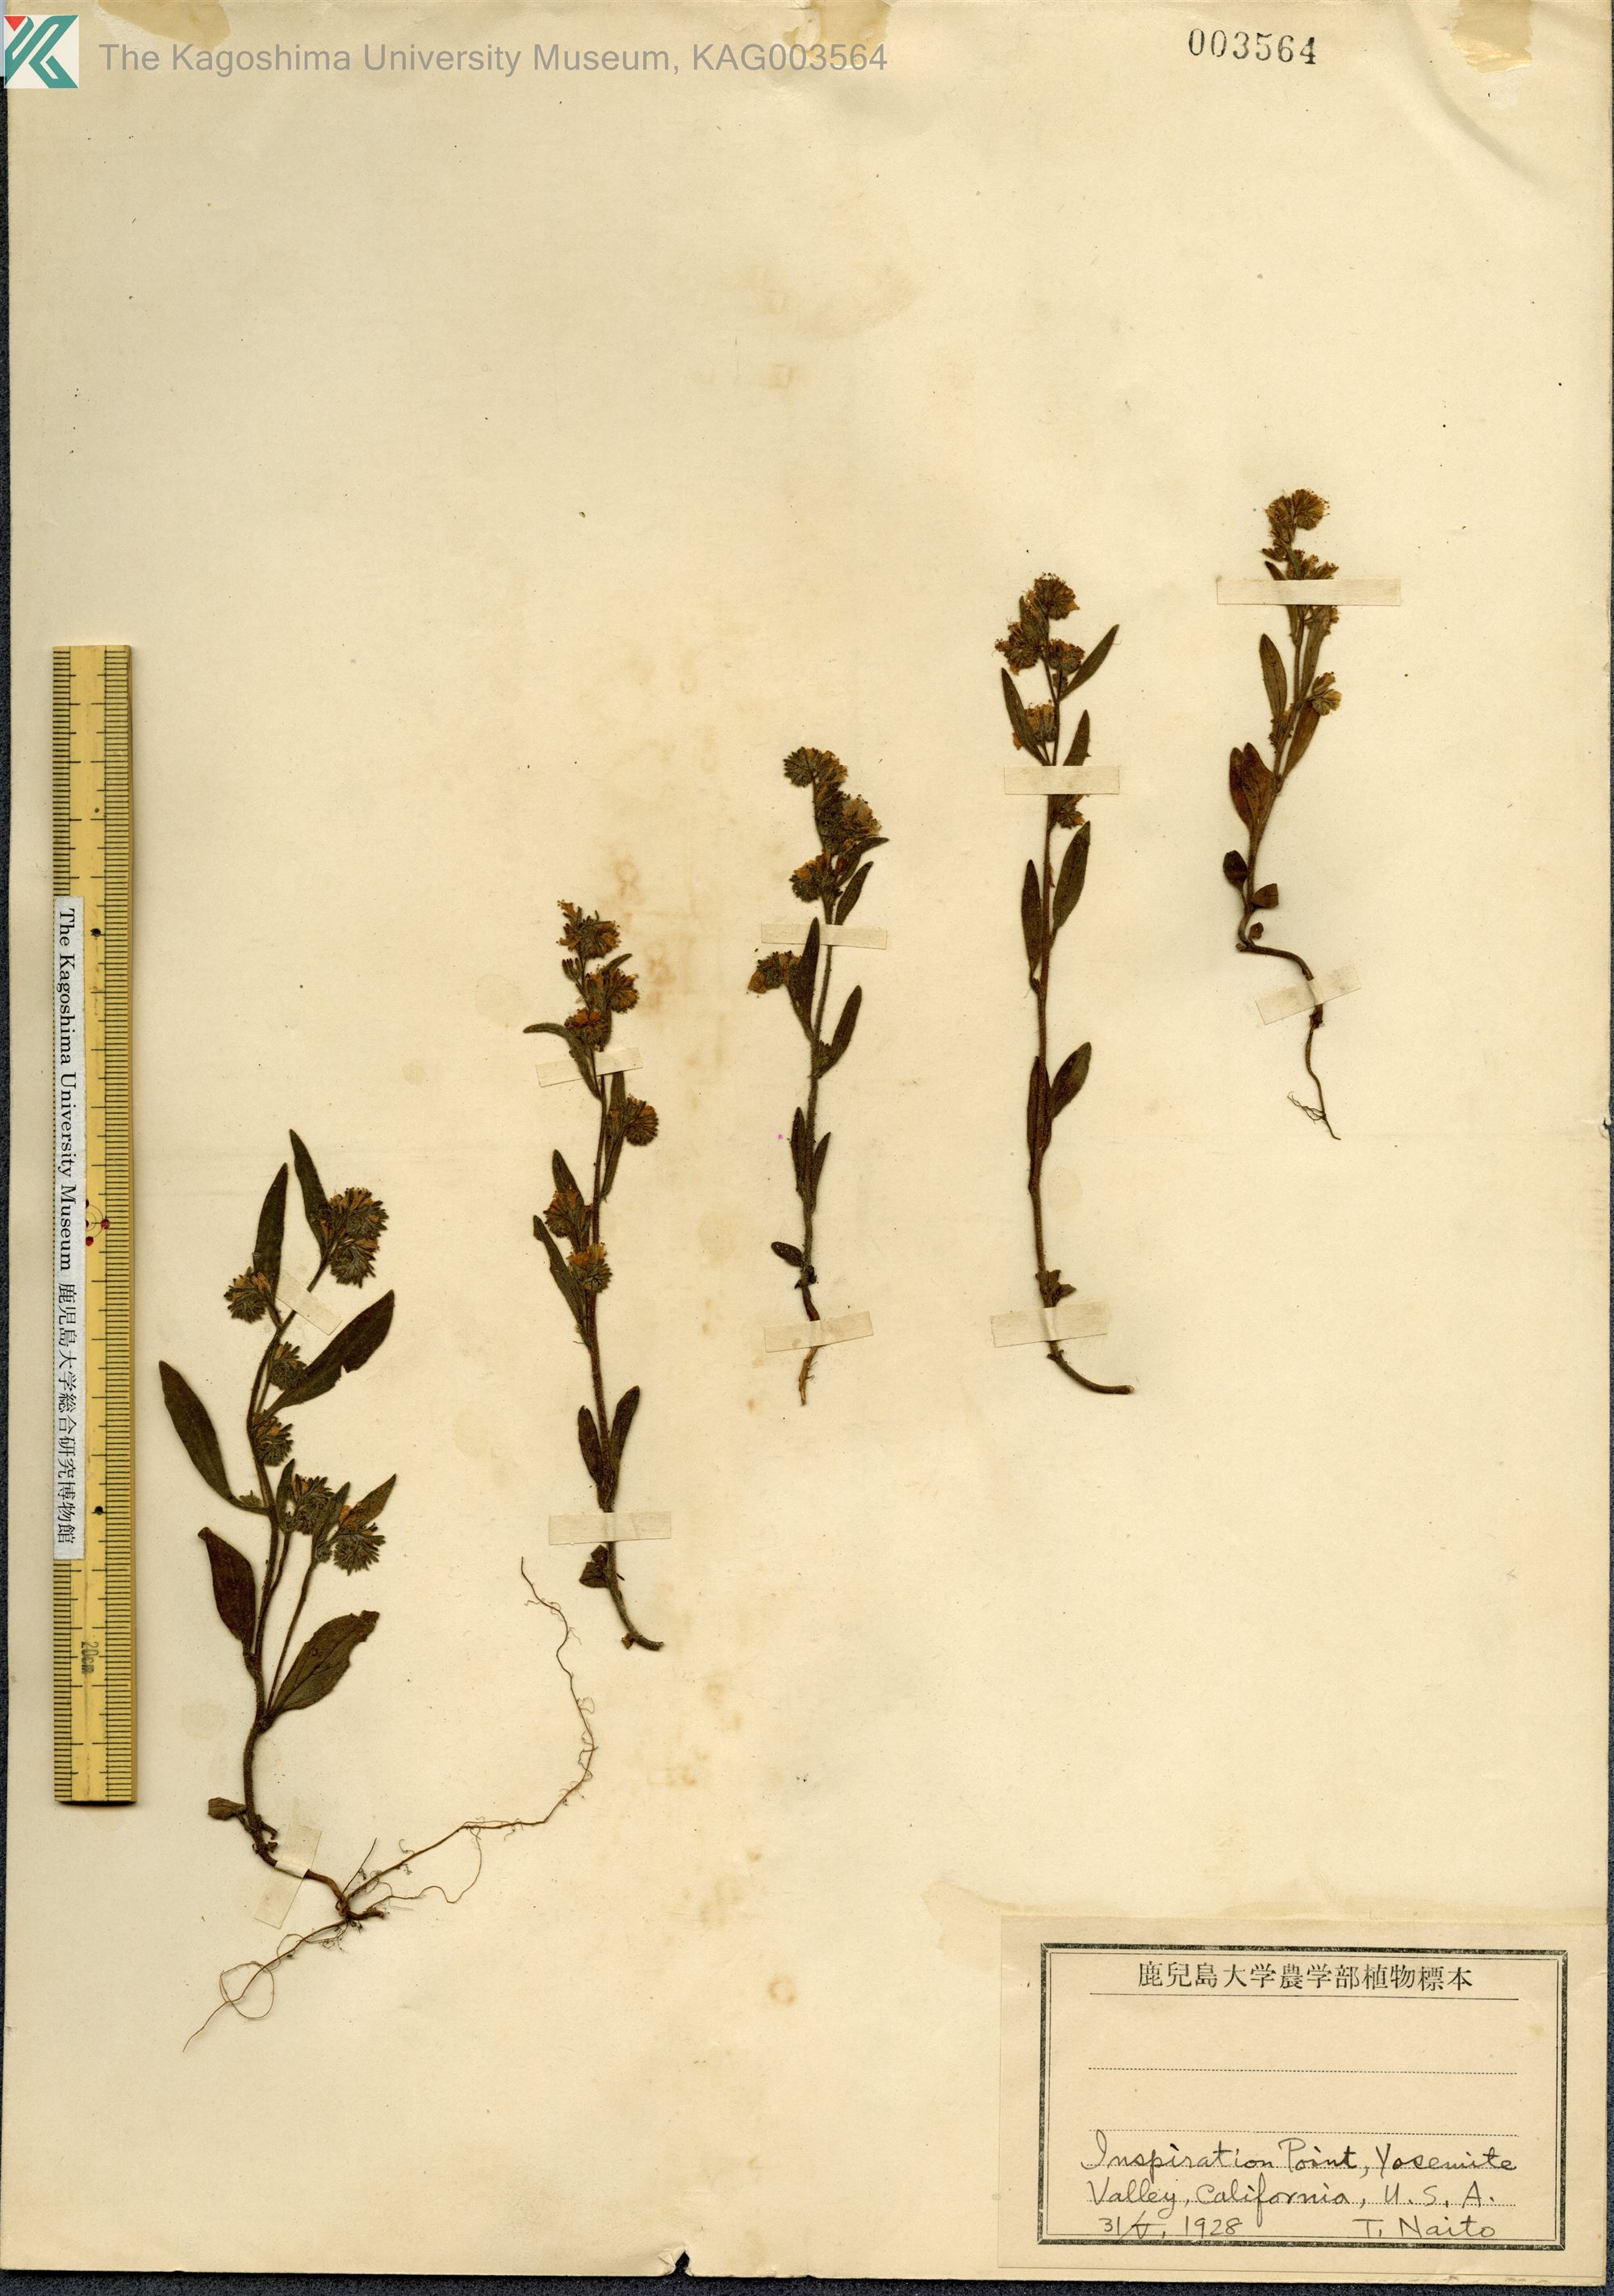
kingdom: Plantae
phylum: Tracheophyta
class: Magnoliopsida
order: Boraginales
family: Boraginaceae
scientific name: Boraginaceae
